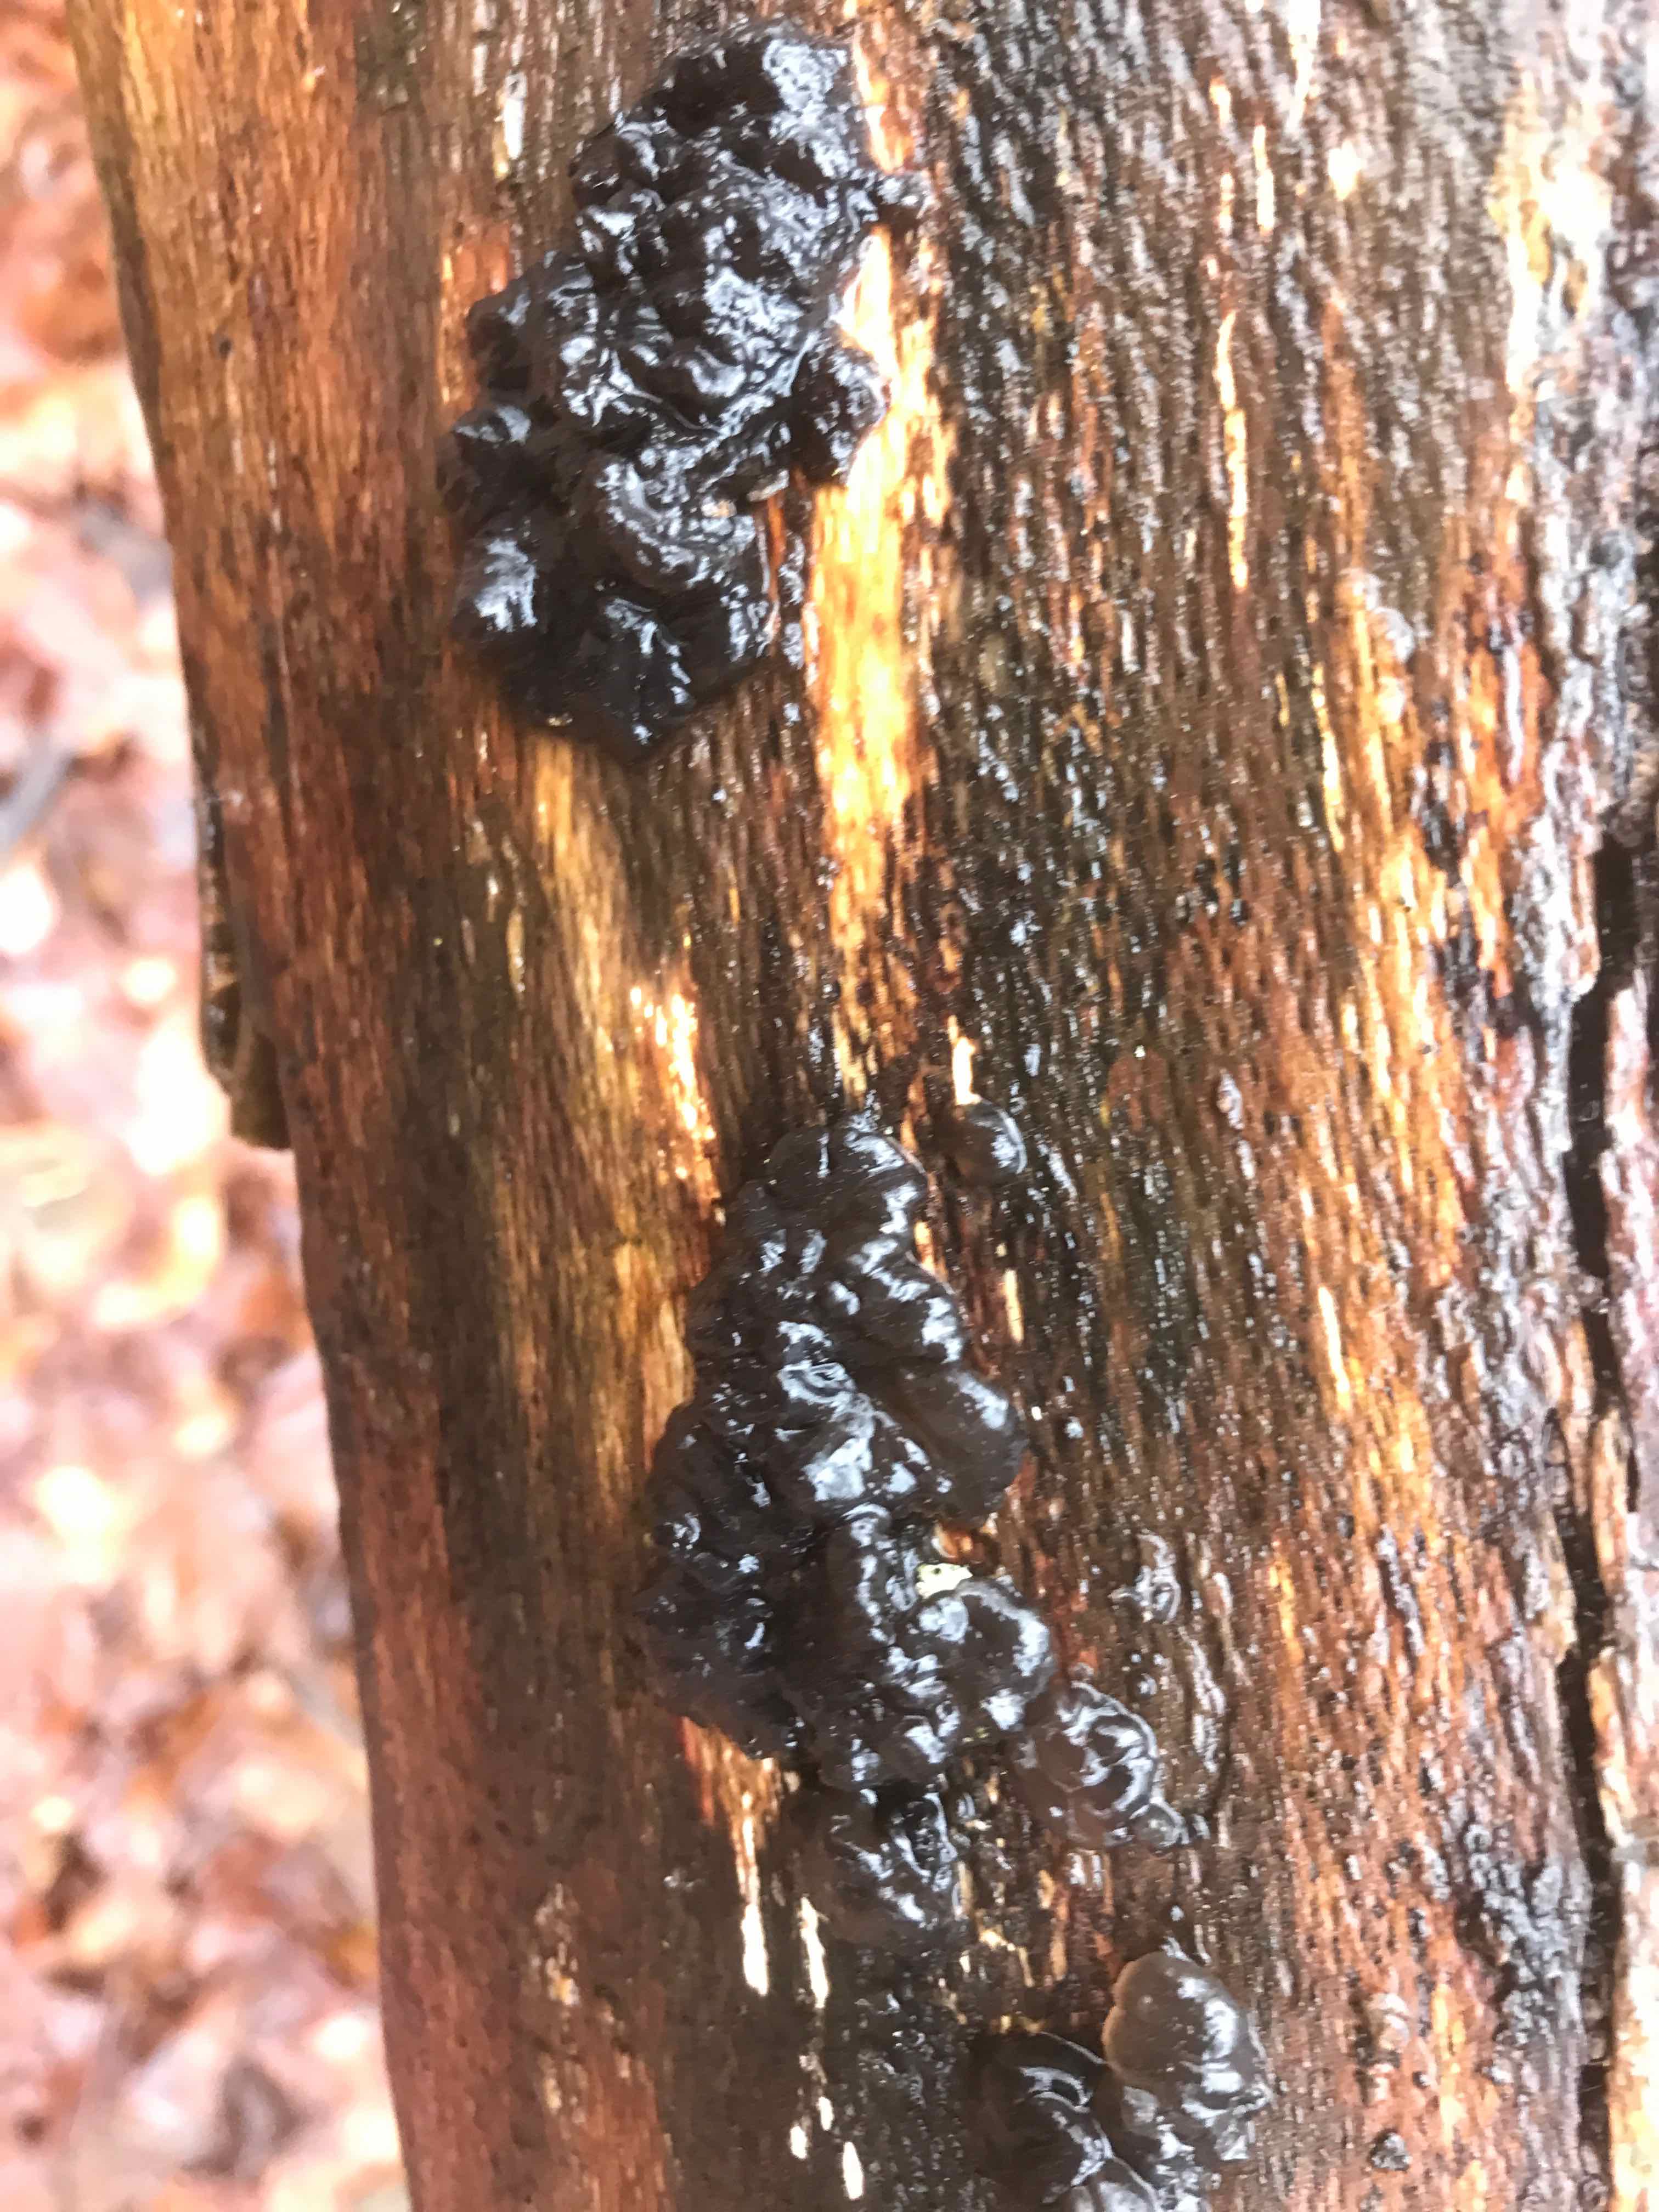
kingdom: Fungi
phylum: Basidiomycota
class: Agaricomycetes
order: Auriculariales
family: Auriculariaceae
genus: Exidia
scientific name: Exidia nigricans
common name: almindelig bævretop
